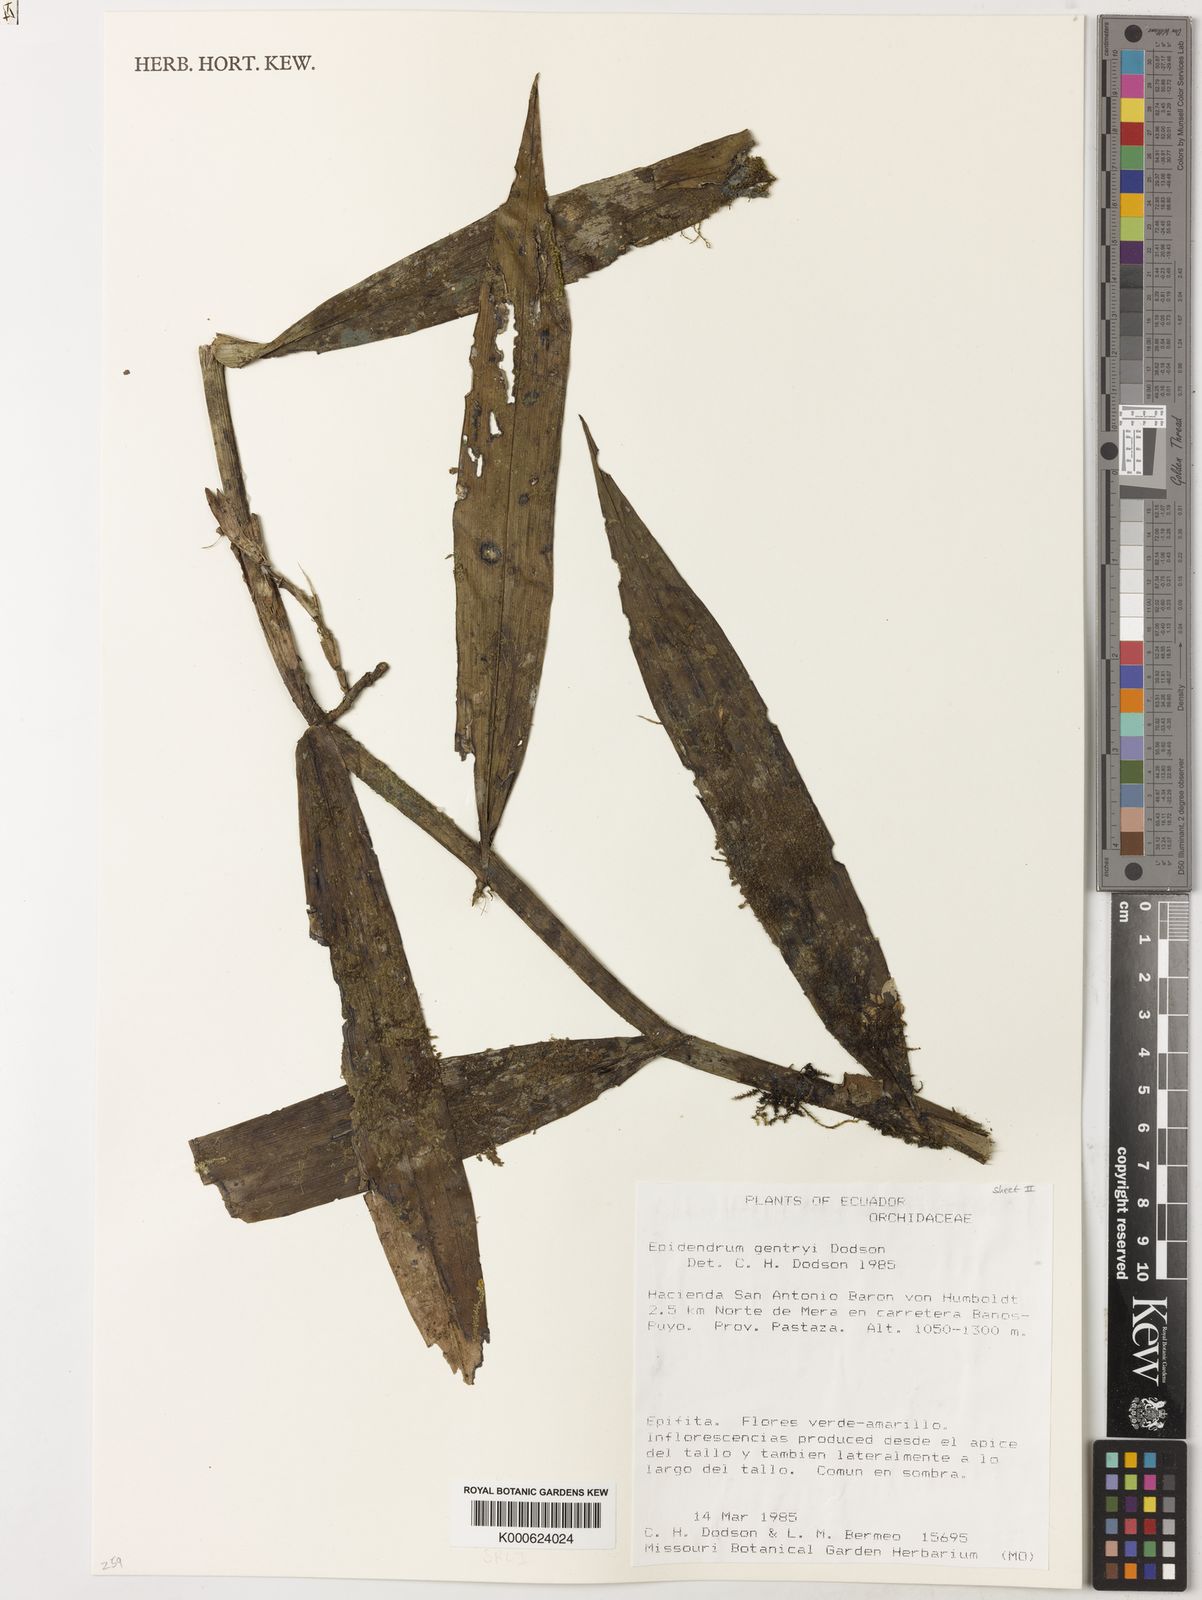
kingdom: Plantae
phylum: Tracheophyta
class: Liliopsida
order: Asparagales
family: Orchidaceae
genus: Epidendrum
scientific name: Epidendrum gentryi
